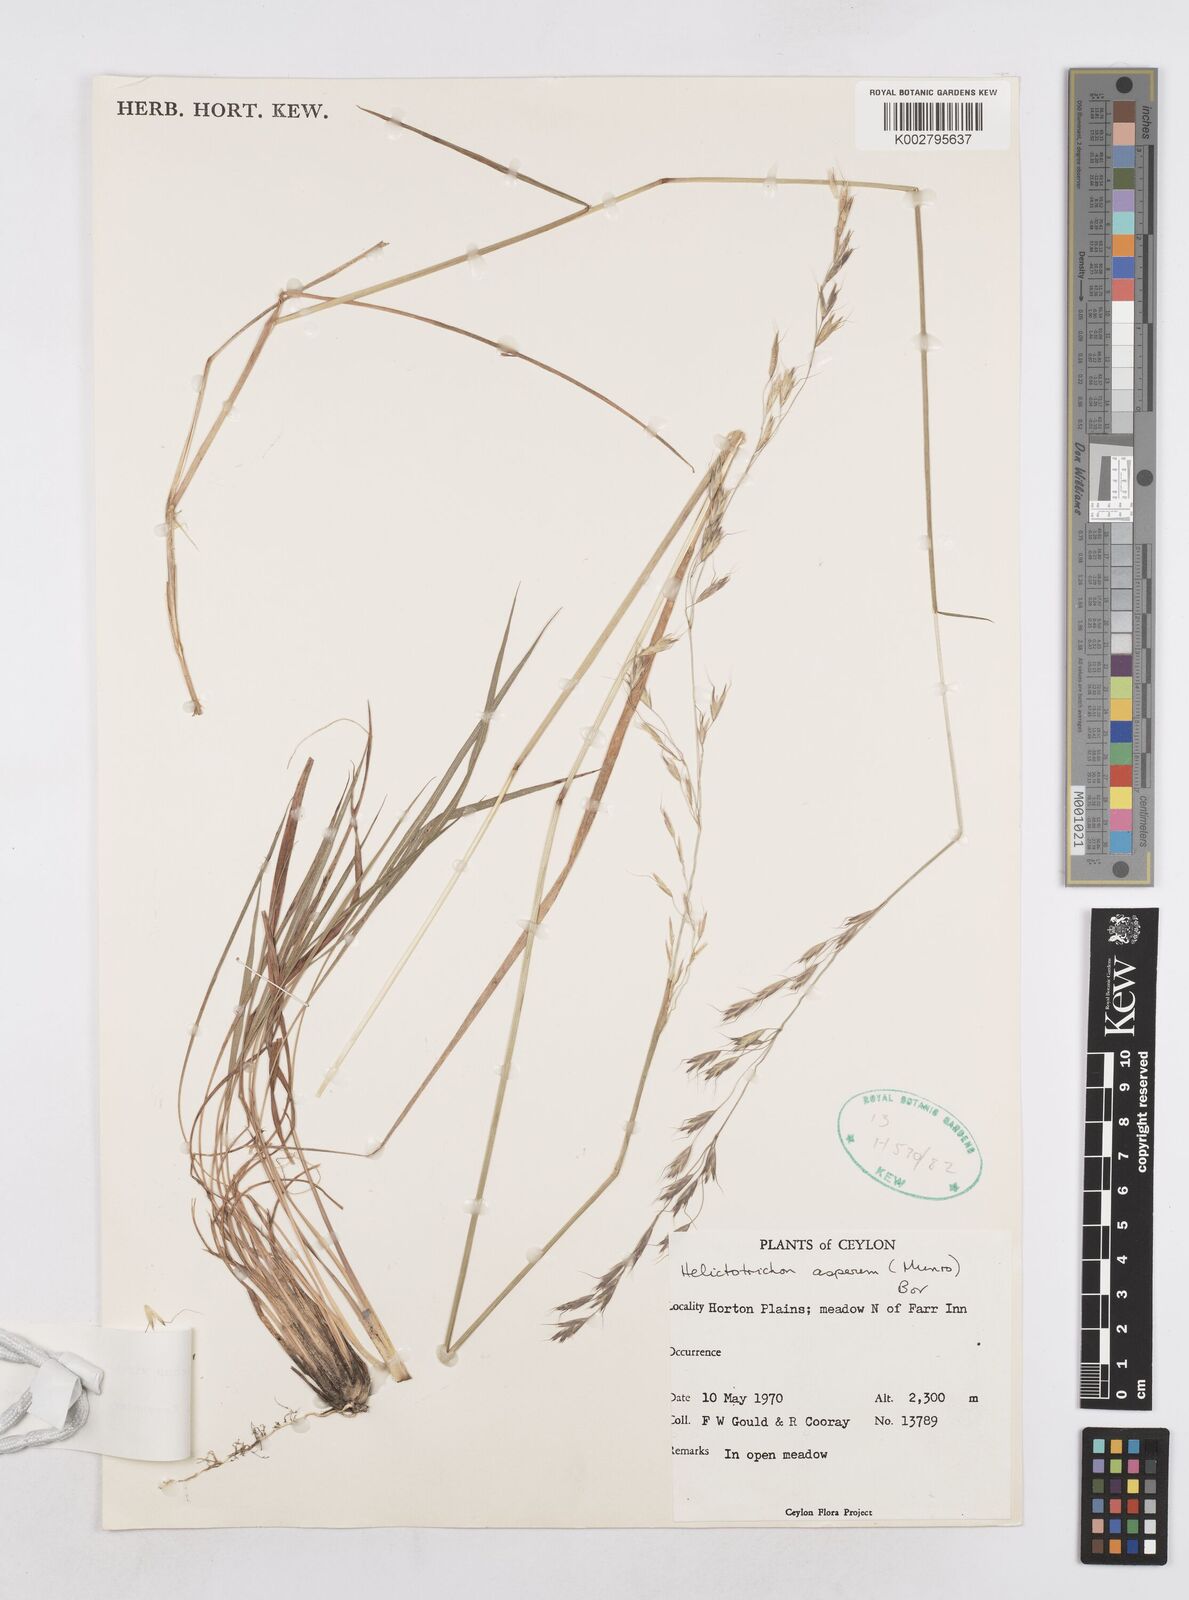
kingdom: Plantae
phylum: Tracheophyta
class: Liliopsida
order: Poales
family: Poaceae
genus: Trisetopsis
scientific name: Trisetopsis virescens
